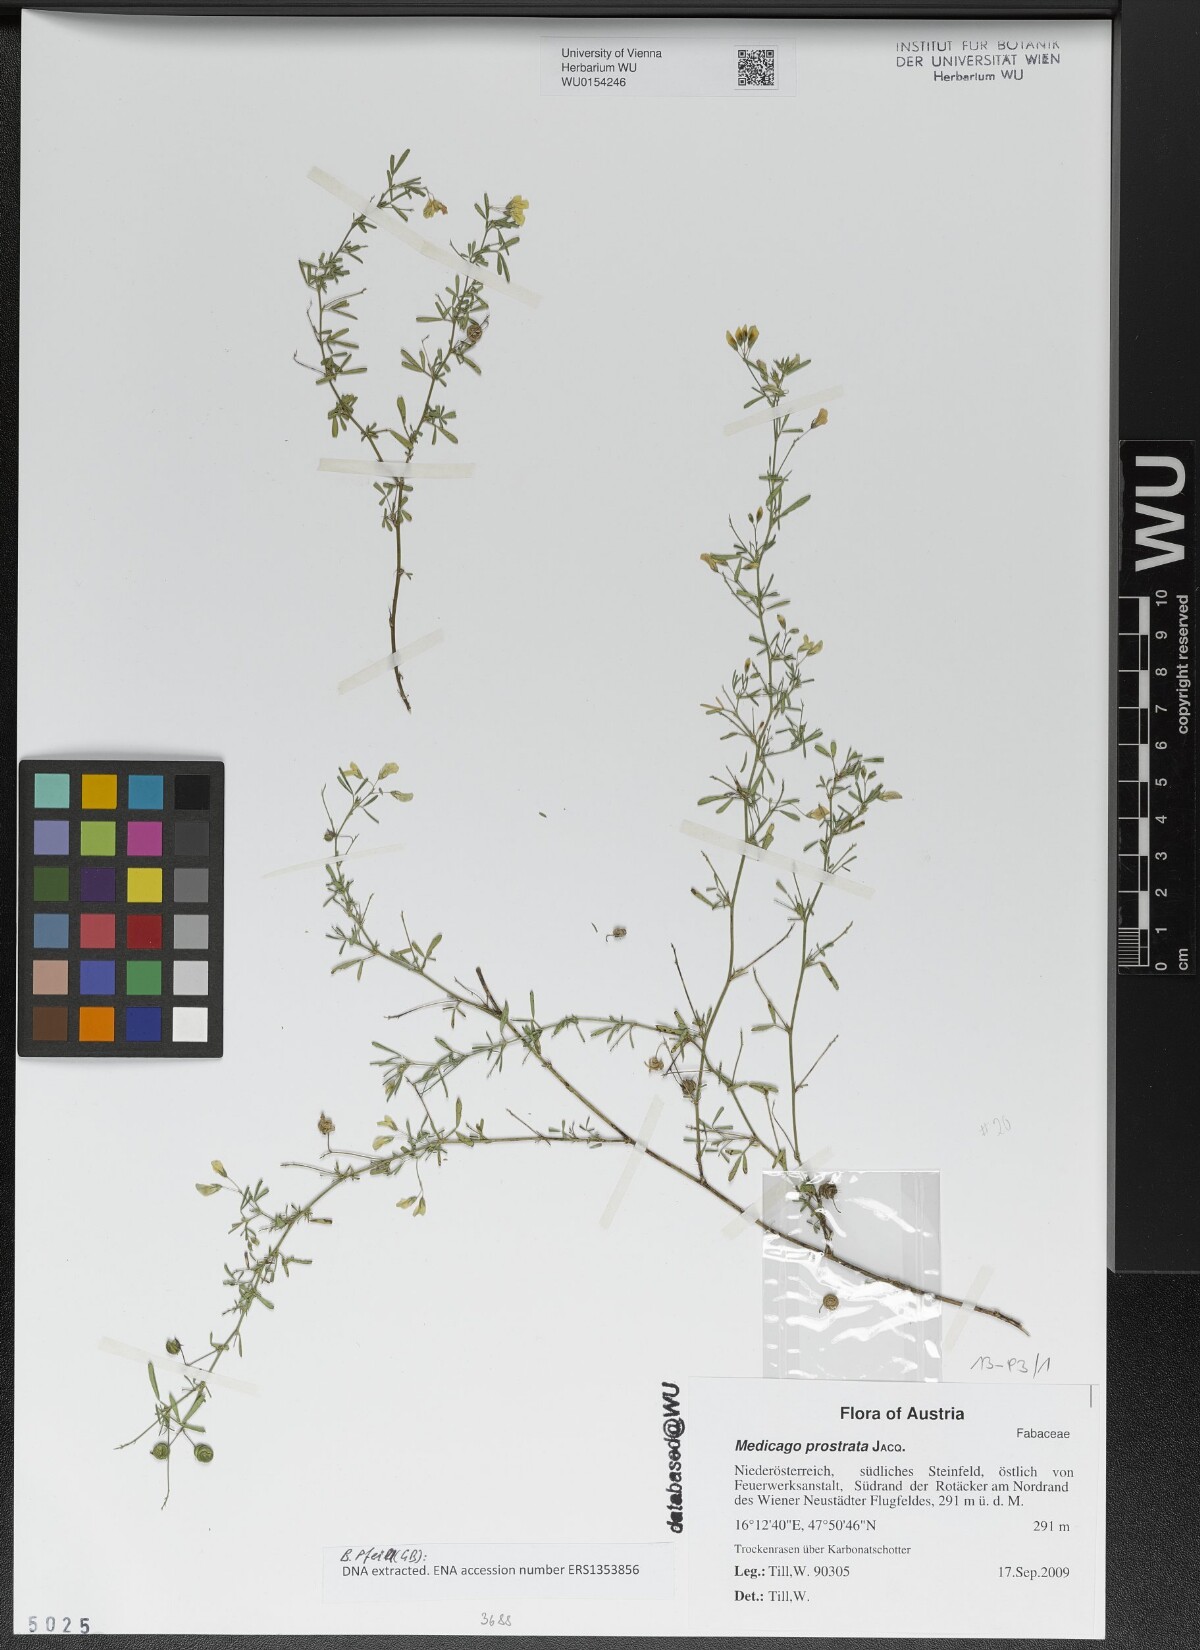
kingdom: Plantae
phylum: Tracheophyta
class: Magnoliopsida
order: Fabales
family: Fabaceae
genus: Medicago
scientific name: Medicago prostrata
